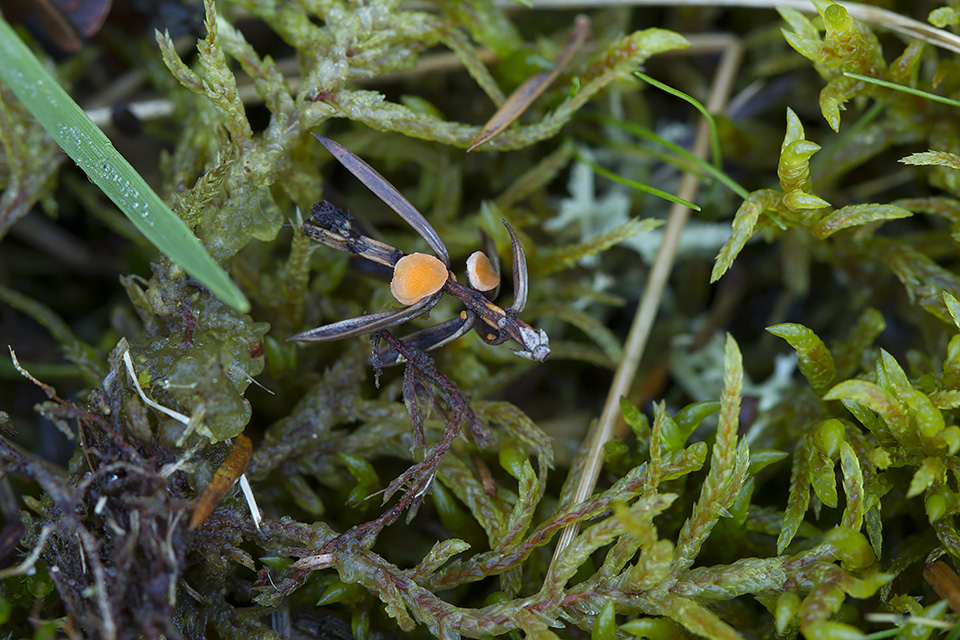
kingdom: Fungi
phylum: Ascomycota
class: Pezizomycetes
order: Pezizales
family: Sarcoscyphaceae
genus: Pithya
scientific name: Pithya cupressina
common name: lille dukatbæger
